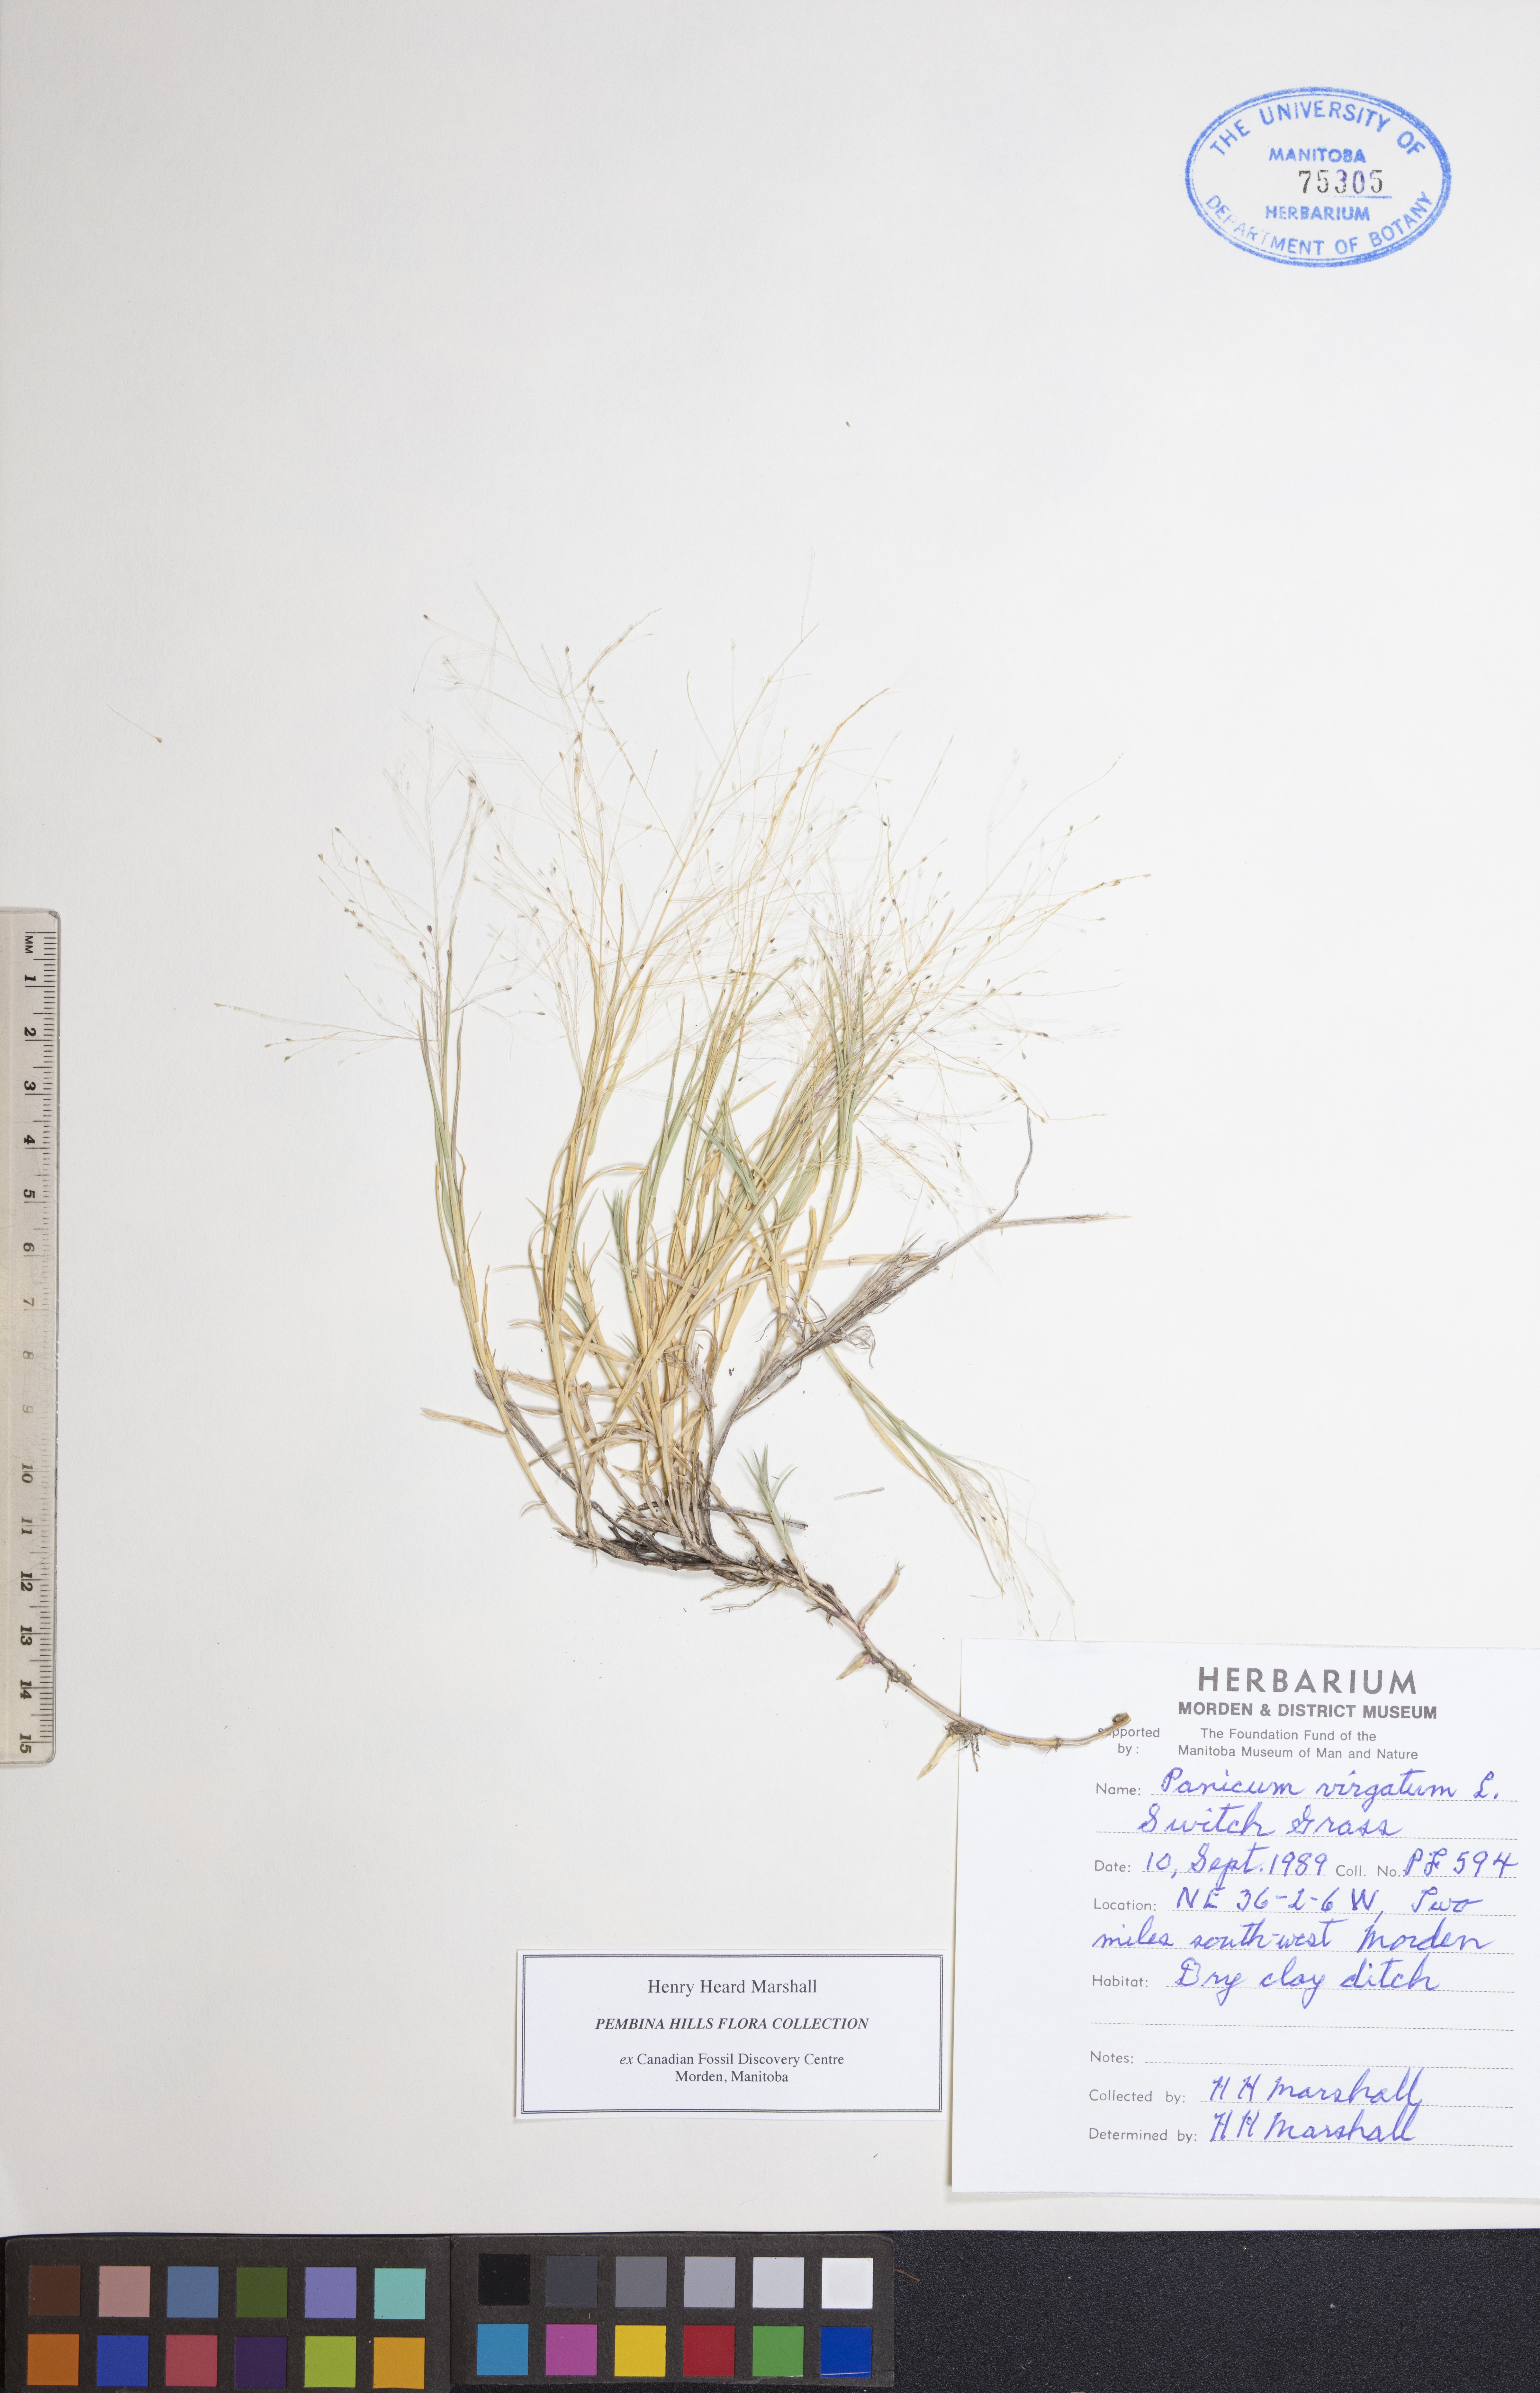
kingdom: Plantae
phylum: Tracheophyta
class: Liliopsida
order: Poales
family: Poaceae
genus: Panicum
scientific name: Panicum virgatum
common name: Switchgrass
